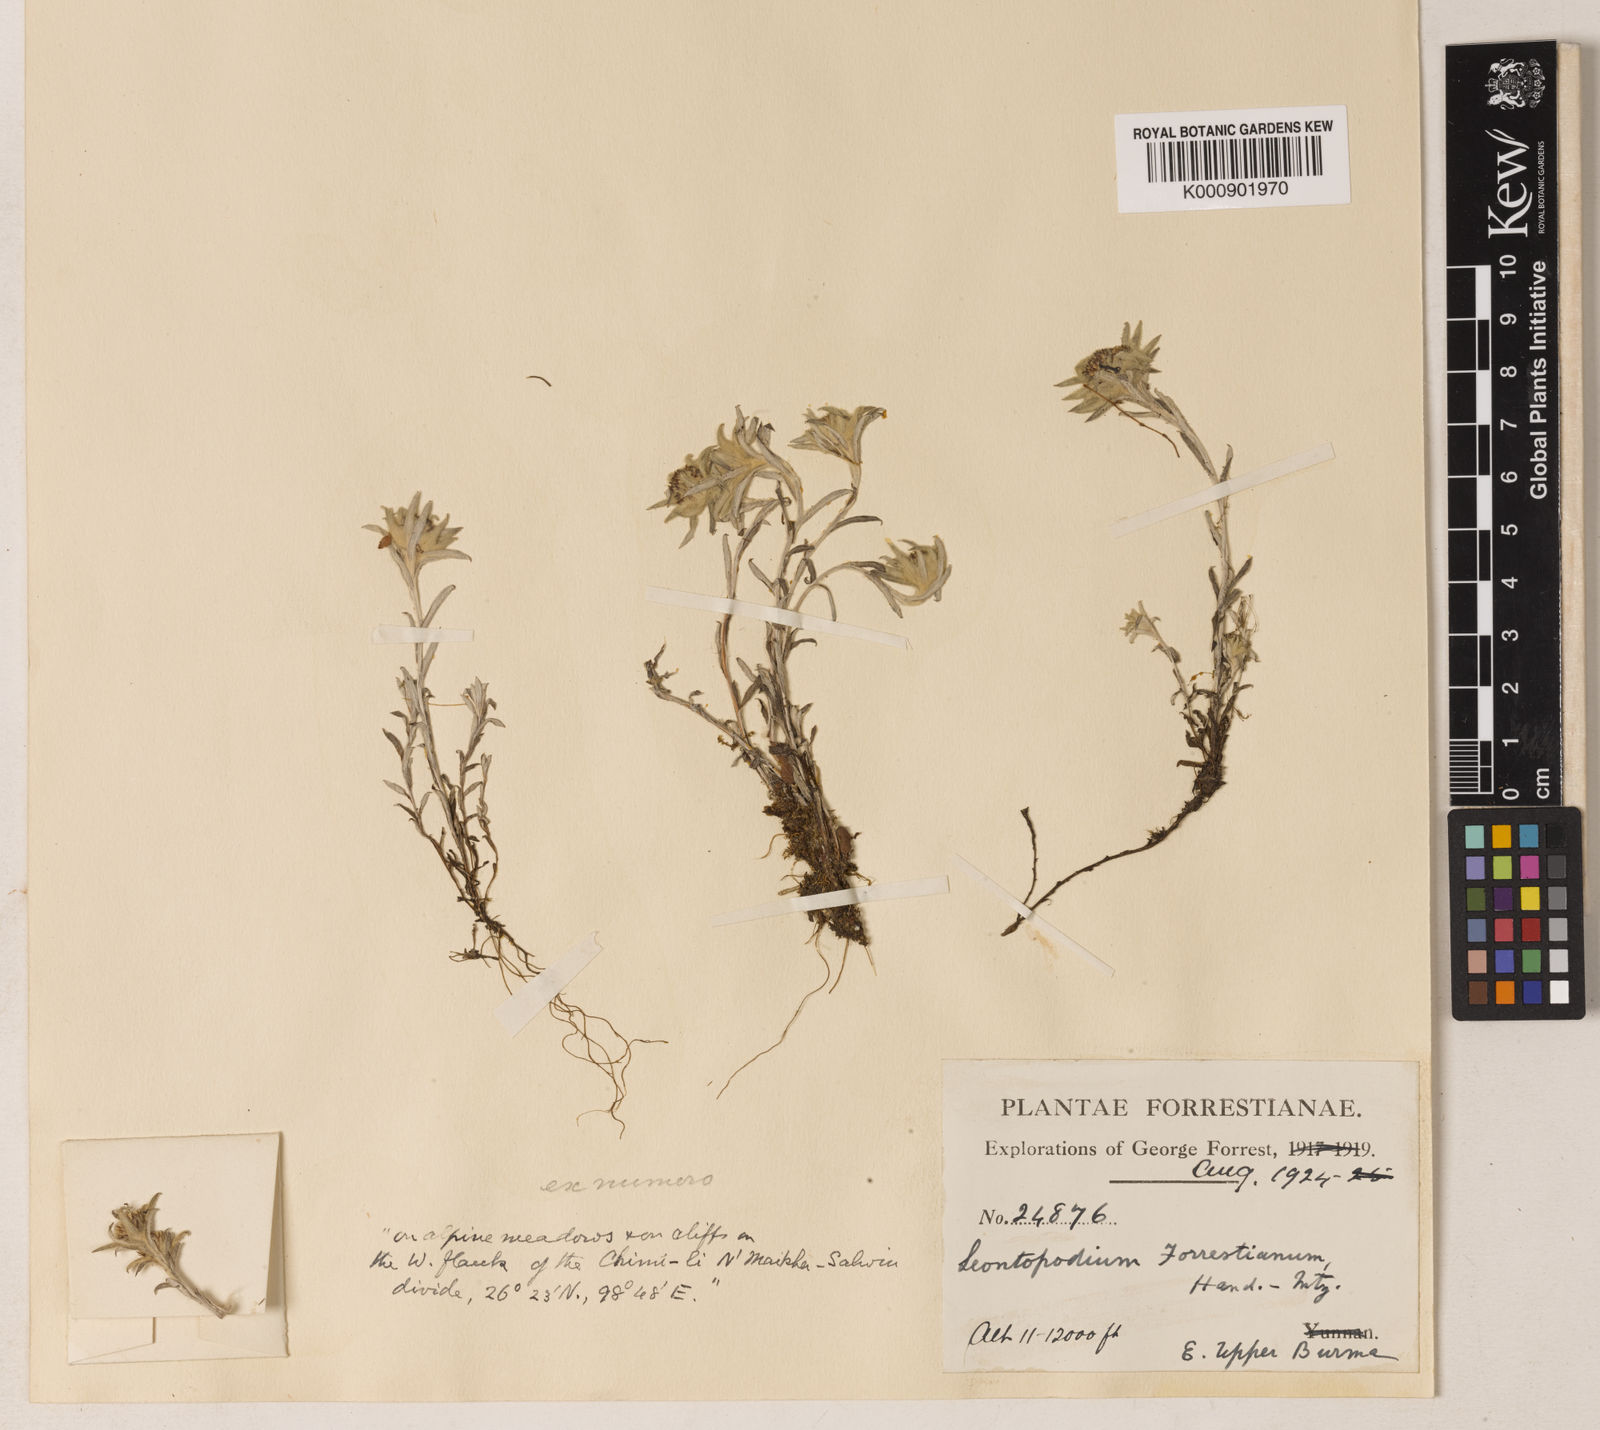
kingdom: Plantae
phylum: Tracheophyta
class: Magnoliopsida
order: Asterales
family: Asteraceae
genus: Leontopodium
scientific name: Leontopodium forrestianum
